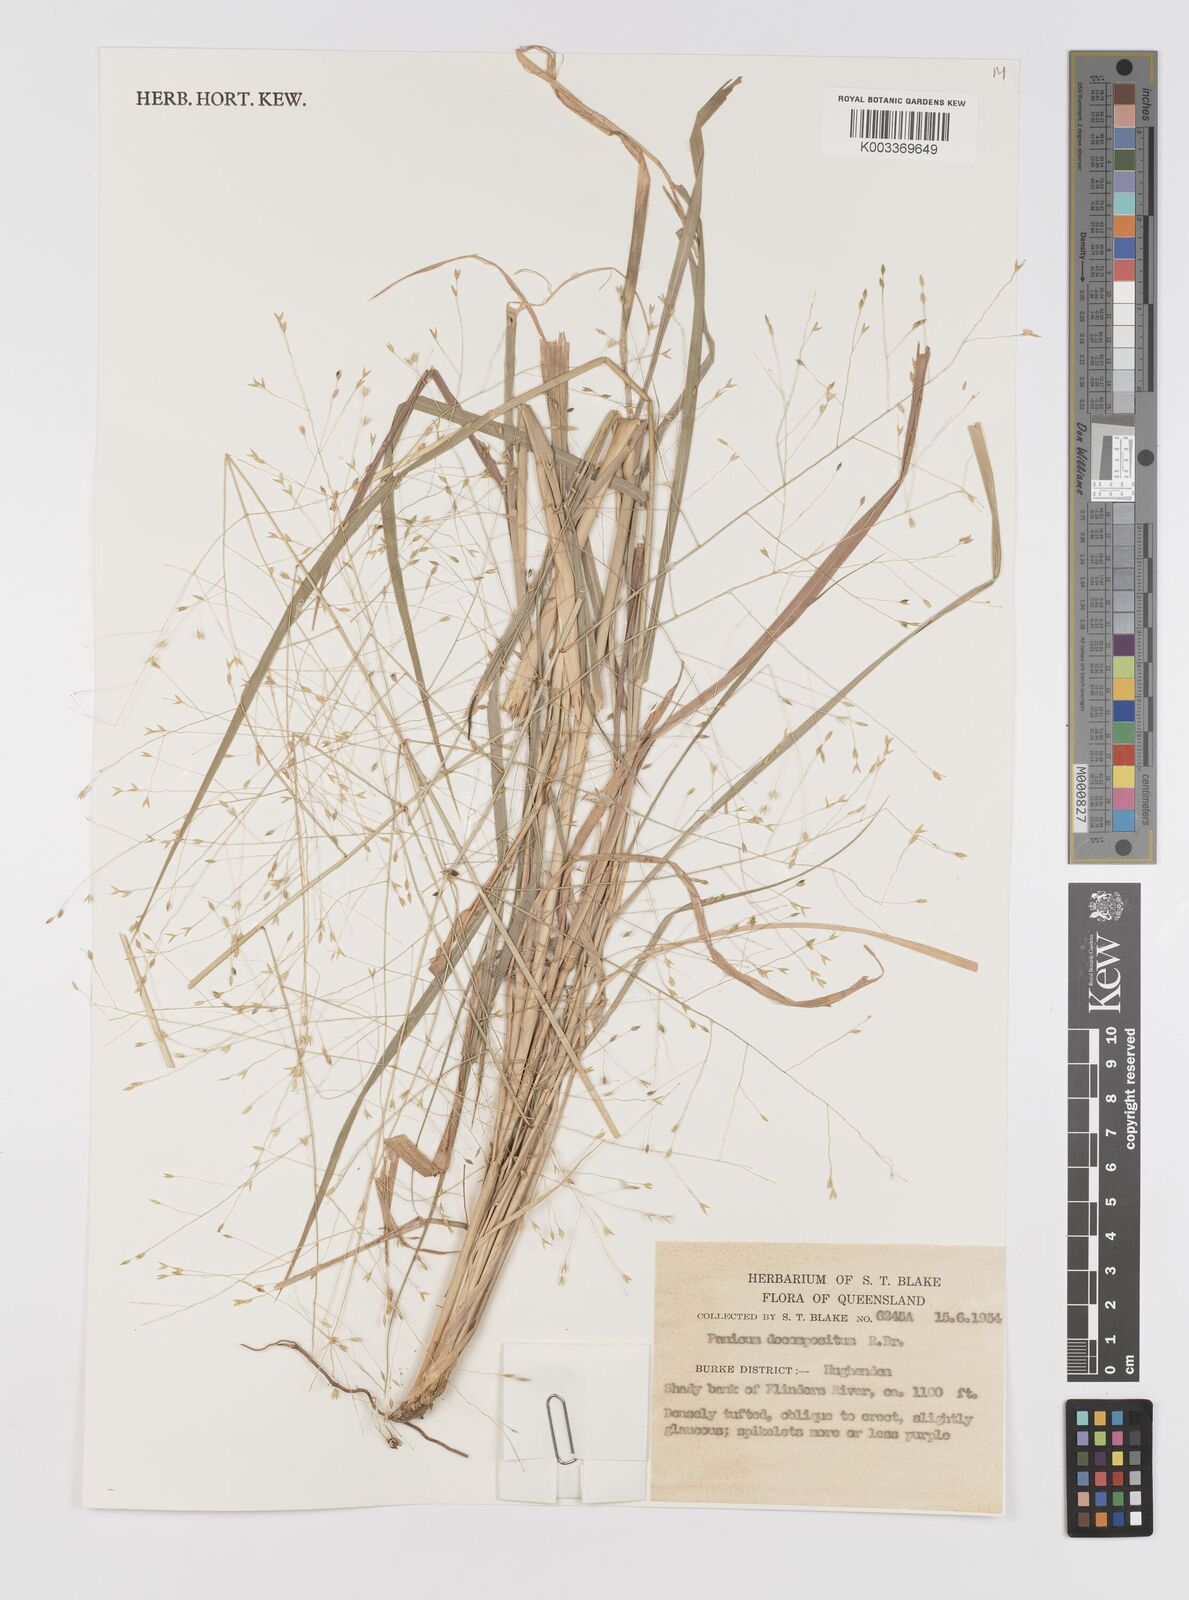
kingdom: Plantae
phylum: Tracheophyta
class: Liliopsida
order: Poales
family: Poaceae
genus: Panicum
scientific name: Panicum decompositum
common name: Australian millet
